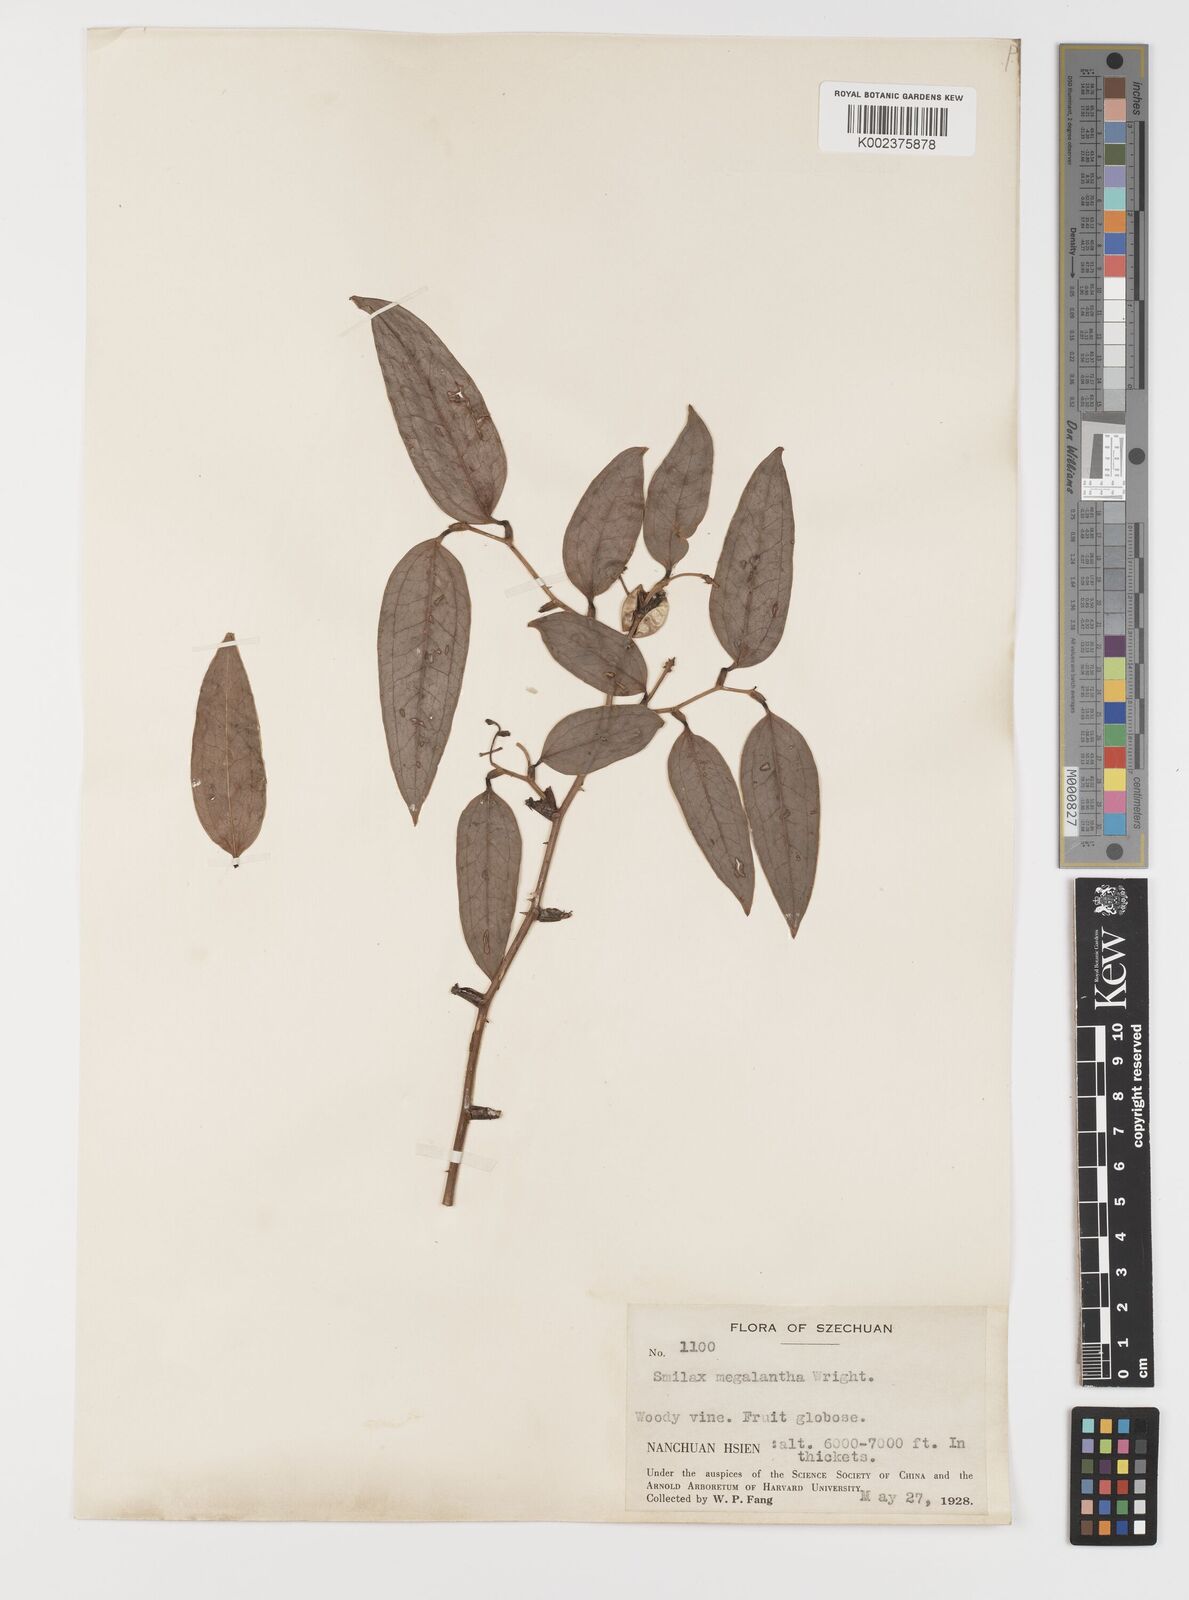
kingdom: Plantae
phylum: Tracheophyta
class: Liliopsida
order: Liliales
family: Smilacaceae
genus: Smilax
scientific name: Smilax megalantha
